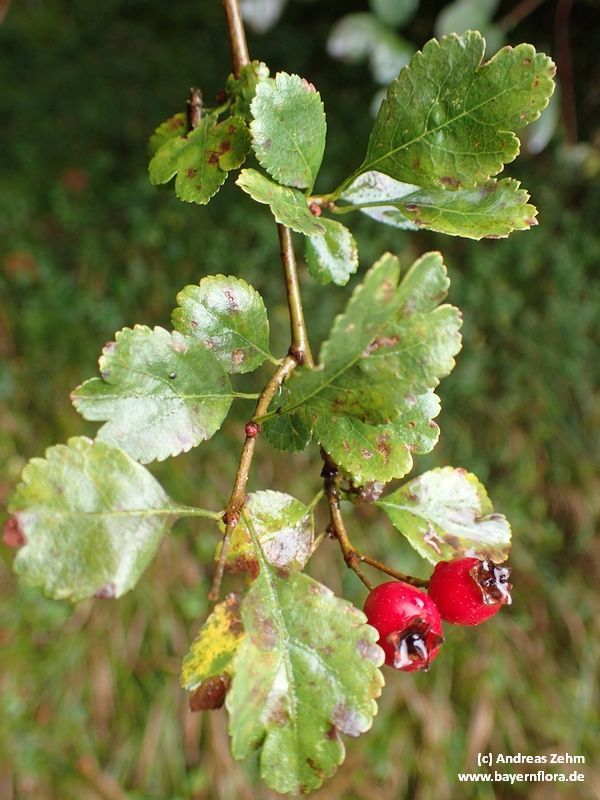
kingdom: Plantae
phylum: Tracheophyta
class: Magnoliopsida
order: Rosales
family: Rosaceae
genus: Crataegus
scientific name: Crataegus laevigata
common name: Midland hawthorn
